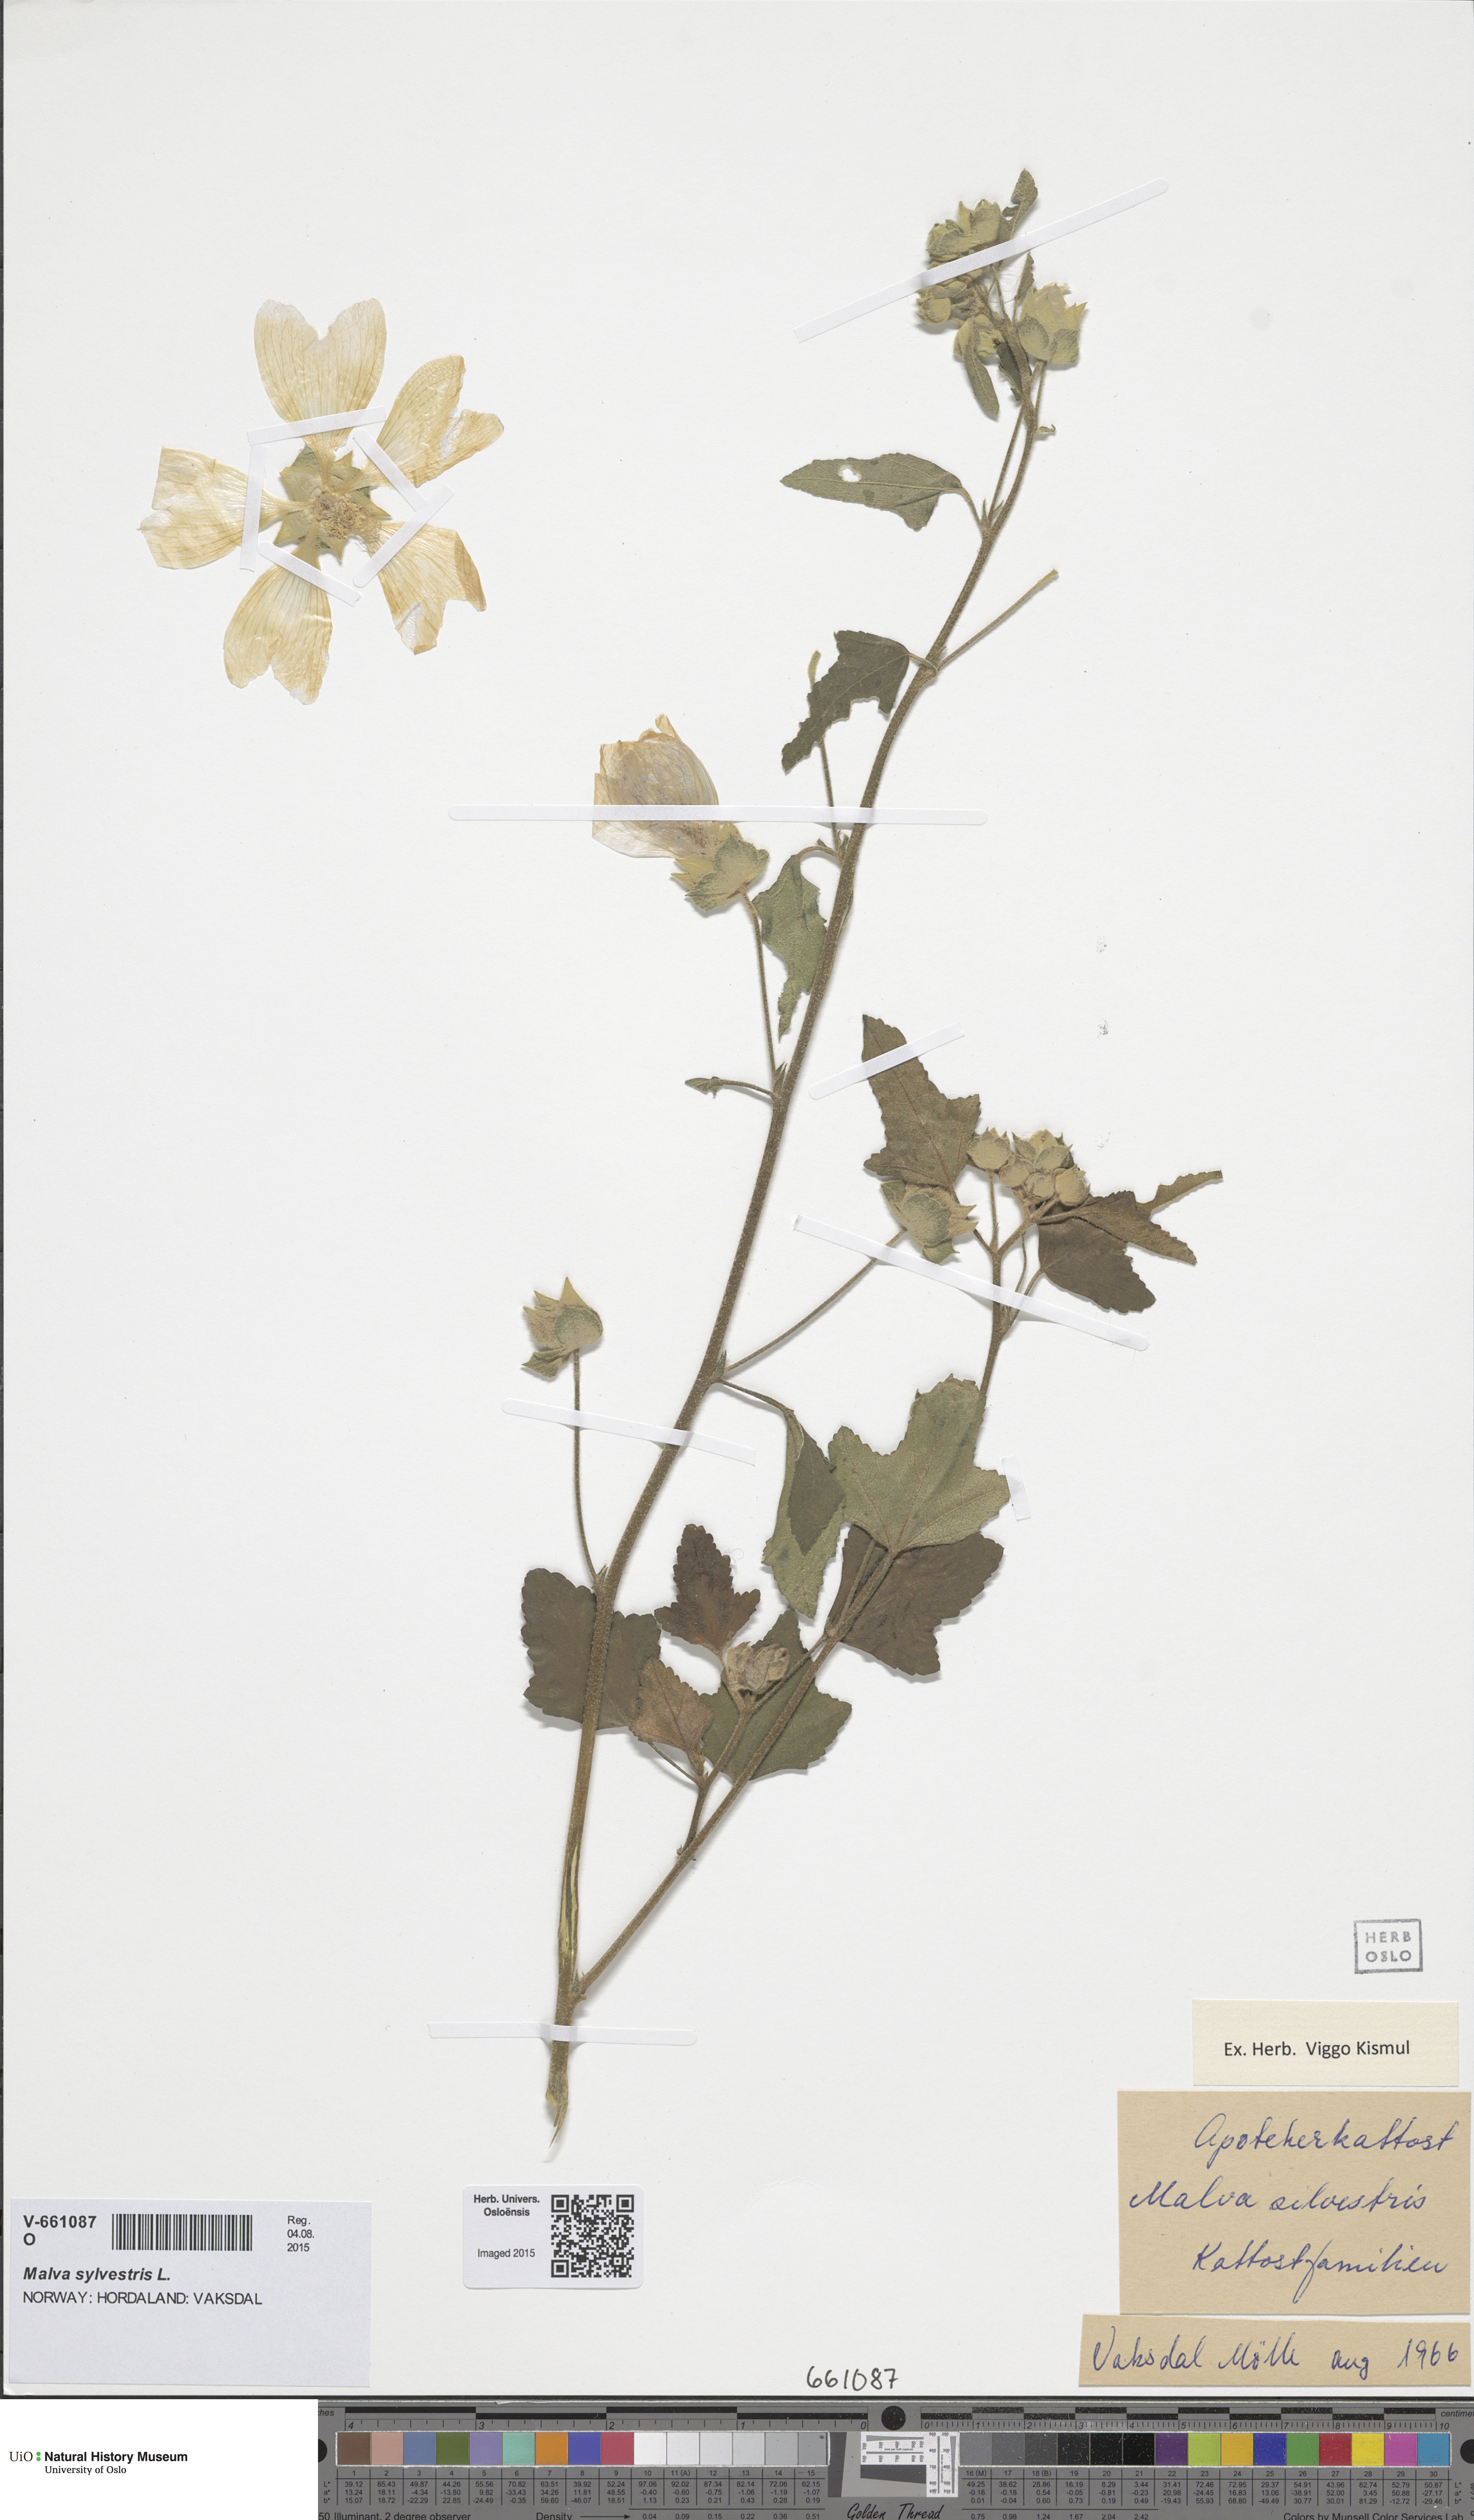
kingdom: Plantae
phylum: Tracheophyta
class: Magnoliopsida
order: Malvales
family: Malvaceae
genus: Malva
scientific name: Malva thuringiaca
